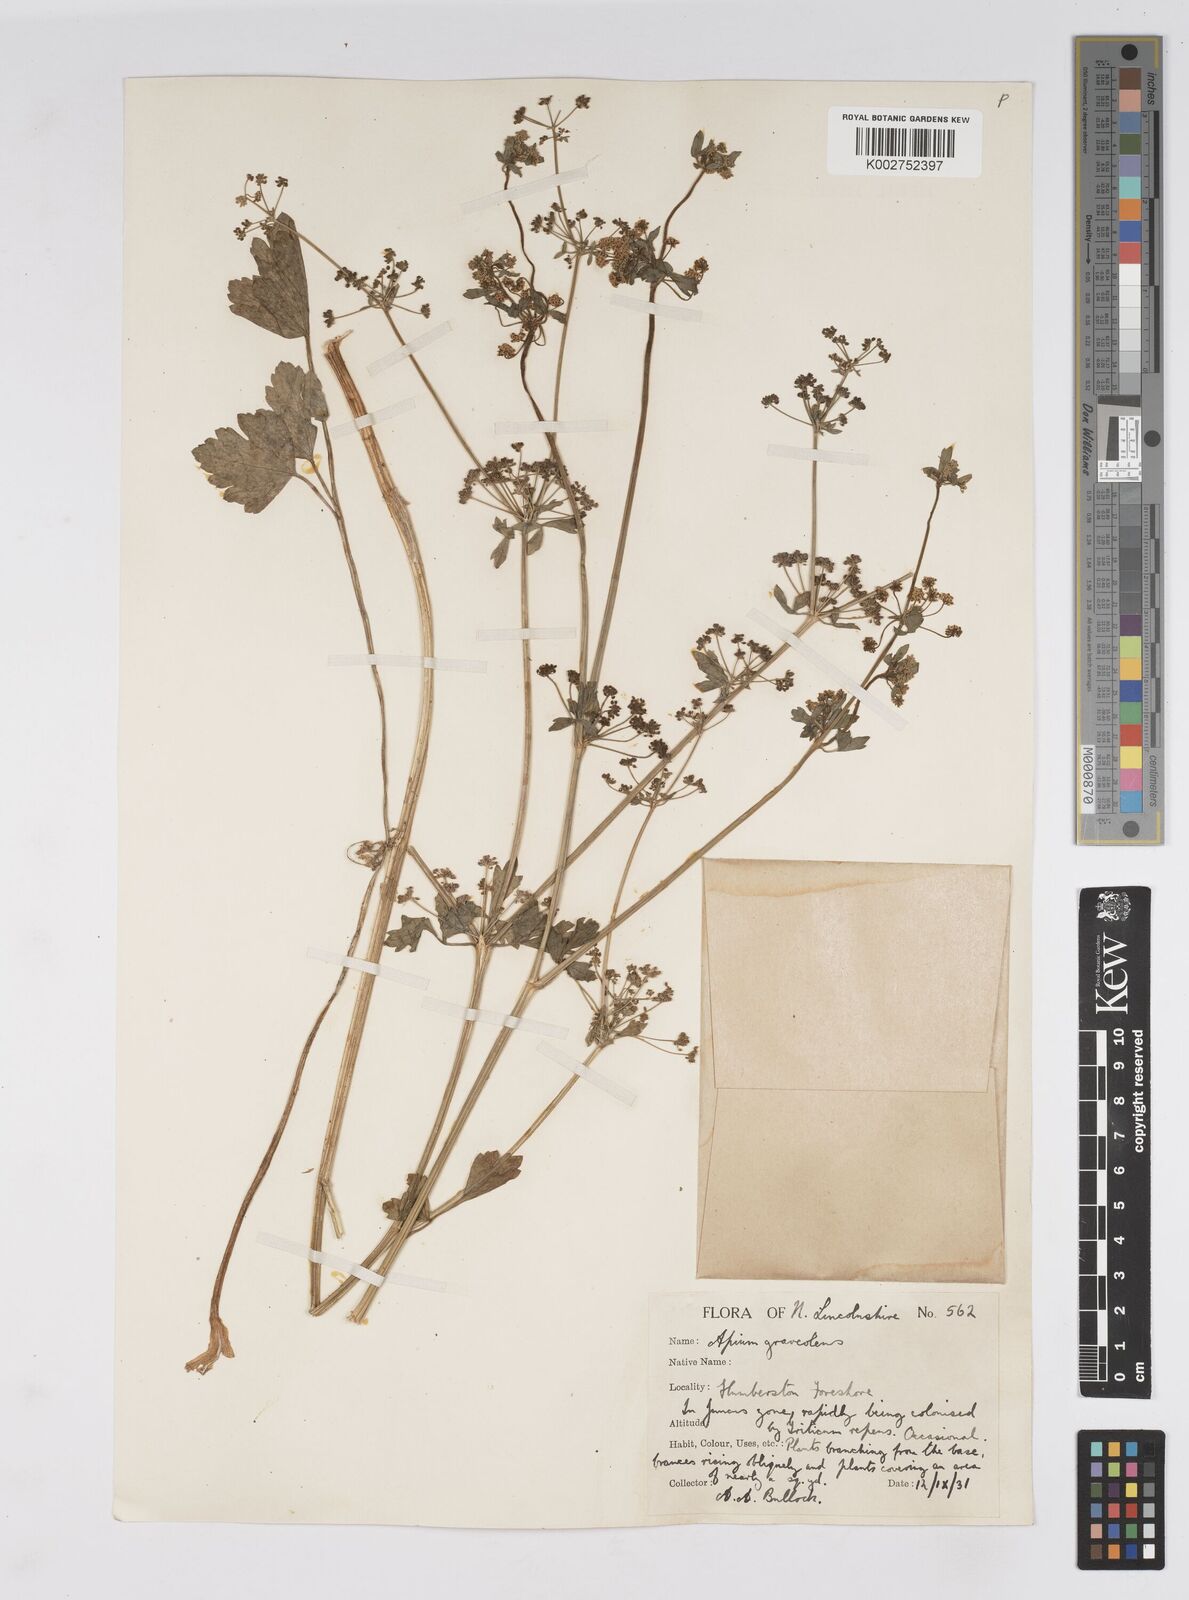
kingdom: Plantae
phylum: Tracheophyta
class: Magnoliopsida
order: Apiales
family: Apiaceae
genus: Apium
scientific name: Apium graveolens
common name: Wild celery
